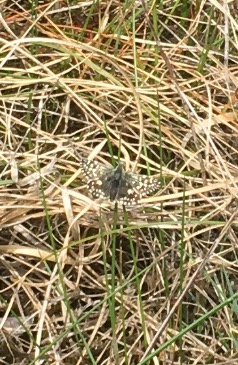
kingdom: Animalia
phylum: Arthropoda
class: Insecta
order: Lepidoptera
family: Hesperiidae
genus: Pyrgus
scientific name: Pyrgus malvae
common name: Spættet bredpande
